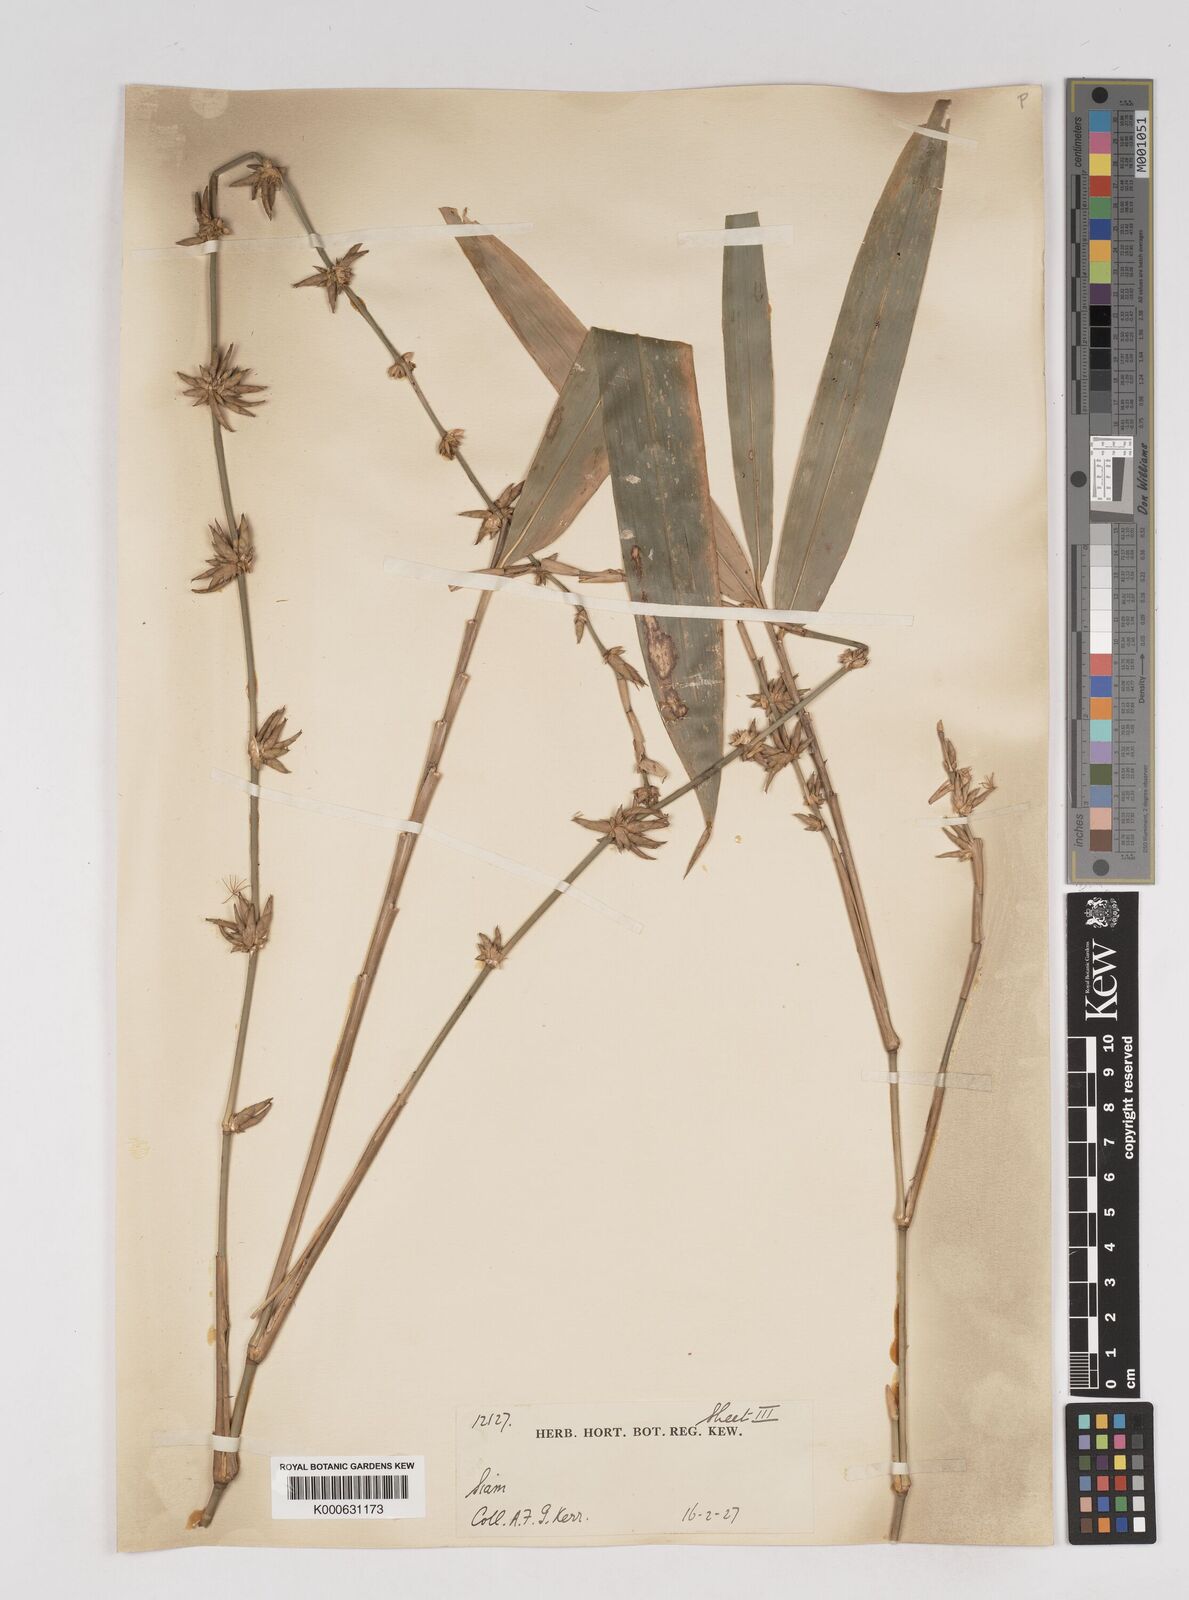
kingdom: Plantae
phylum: Tracheophyta
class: Liliopsida
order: Poales
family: Poaceae
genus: Gigantochloa
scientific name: Gigantochloa
